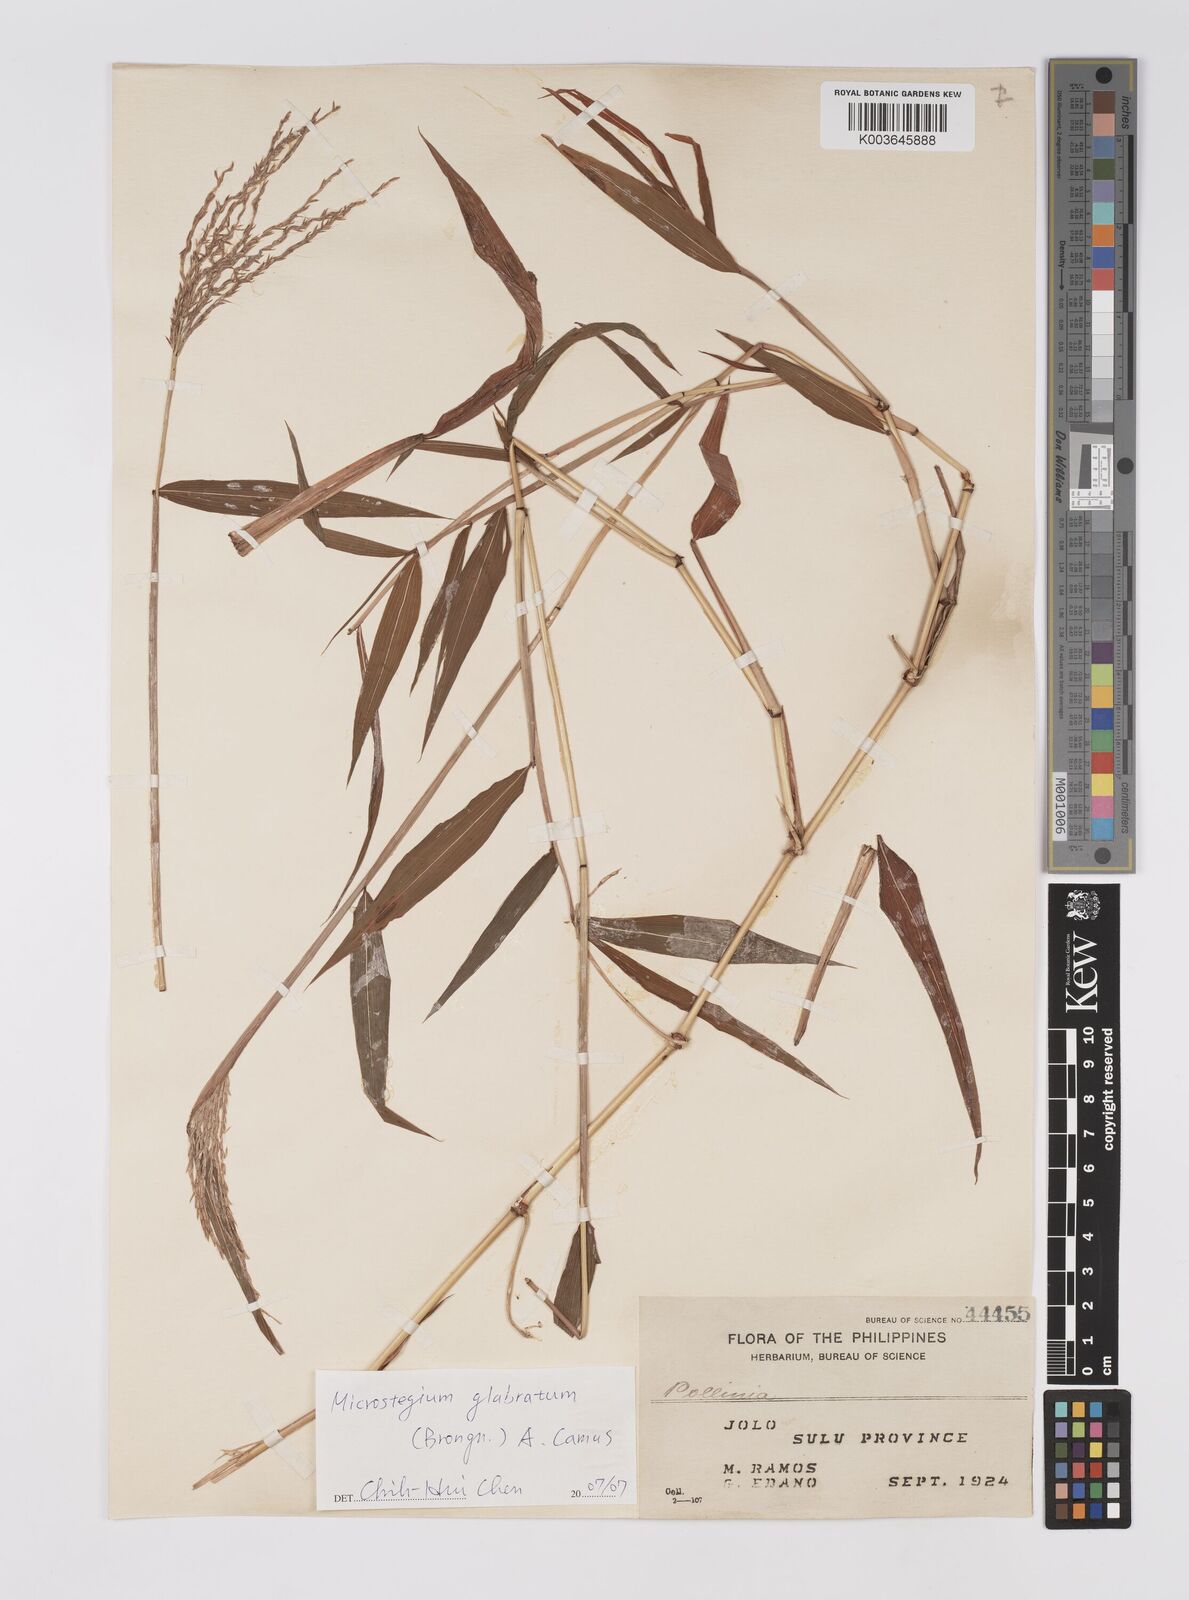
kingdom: Plantae
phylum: Tracheophyta
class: Liliopsida
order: Poales
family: Poaceae
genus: Microstegium
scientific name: Microstegium glabratum
